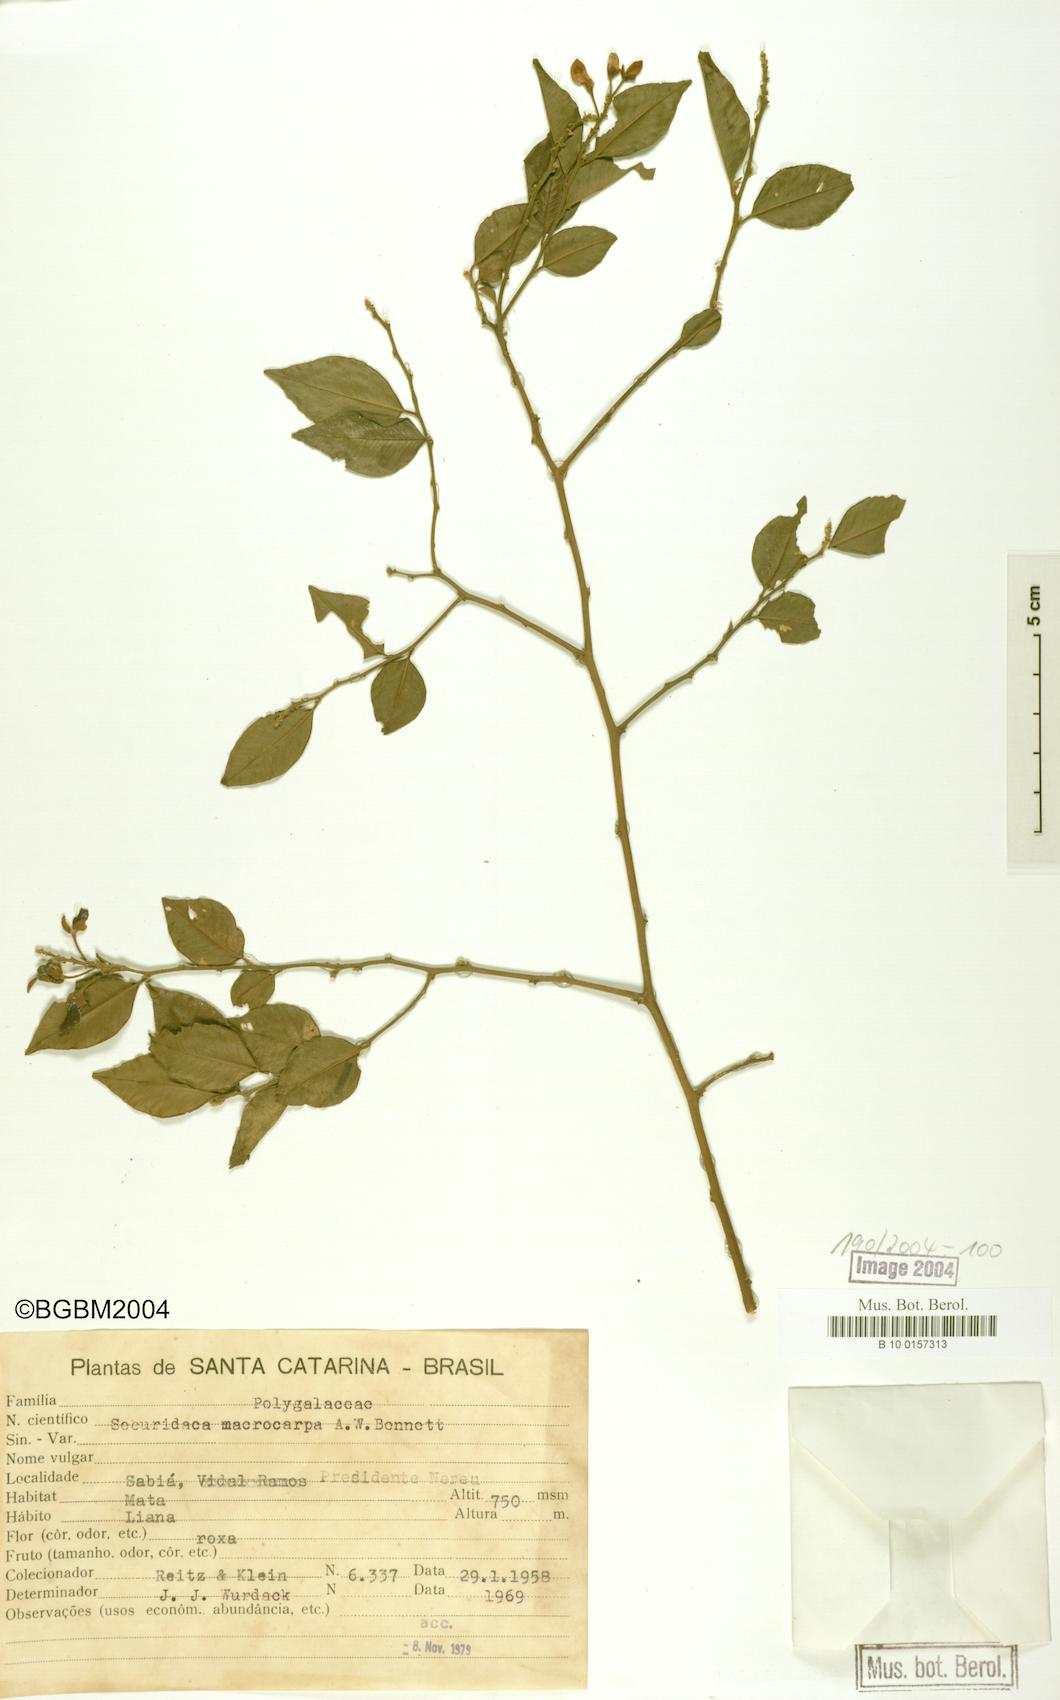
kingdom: Plantae
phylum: Tracheophyta
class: Magnoliopsida
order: Fabales
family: Polygalaceae
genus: Securidaca
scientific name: Securidaca macrocarpa
